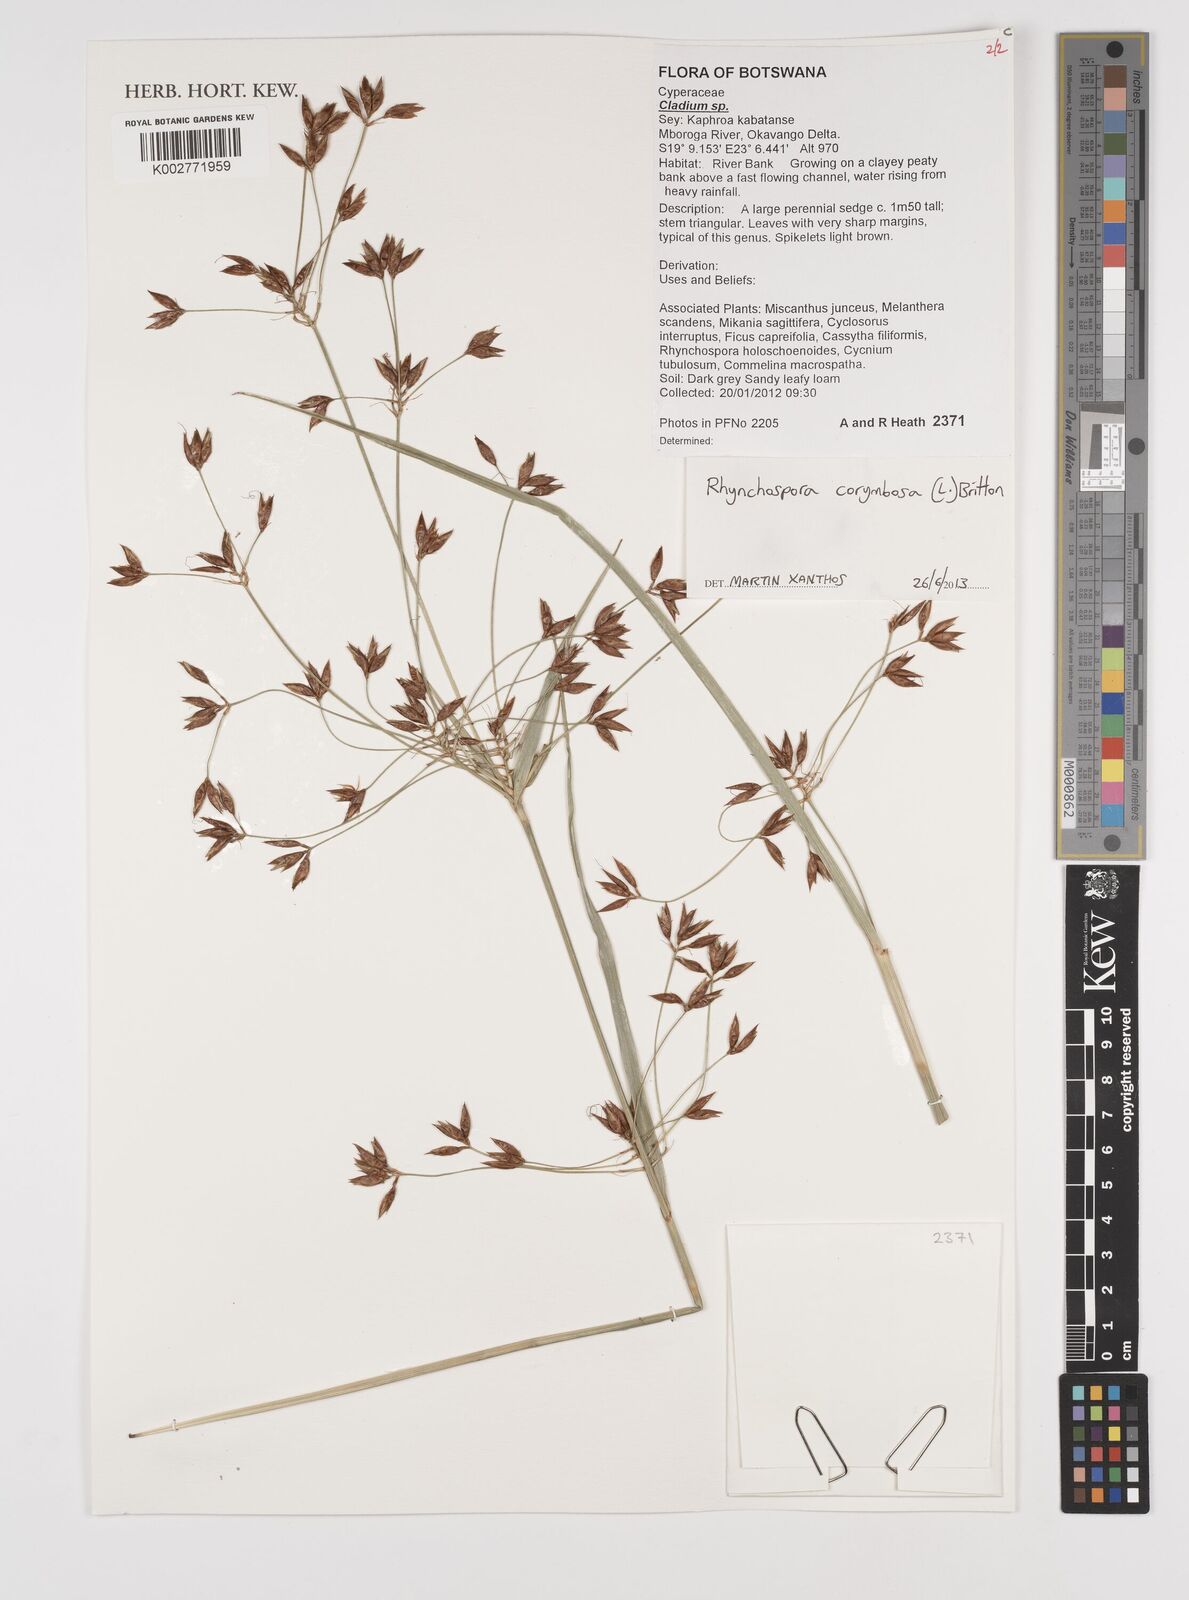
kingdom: Plantae
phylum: Tracheophyta
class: Liliopsida
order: Poales
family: Cyperaceae
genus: Rhynchospora
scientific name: Rhynchospora corymbosa
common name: Golden beak sedge
